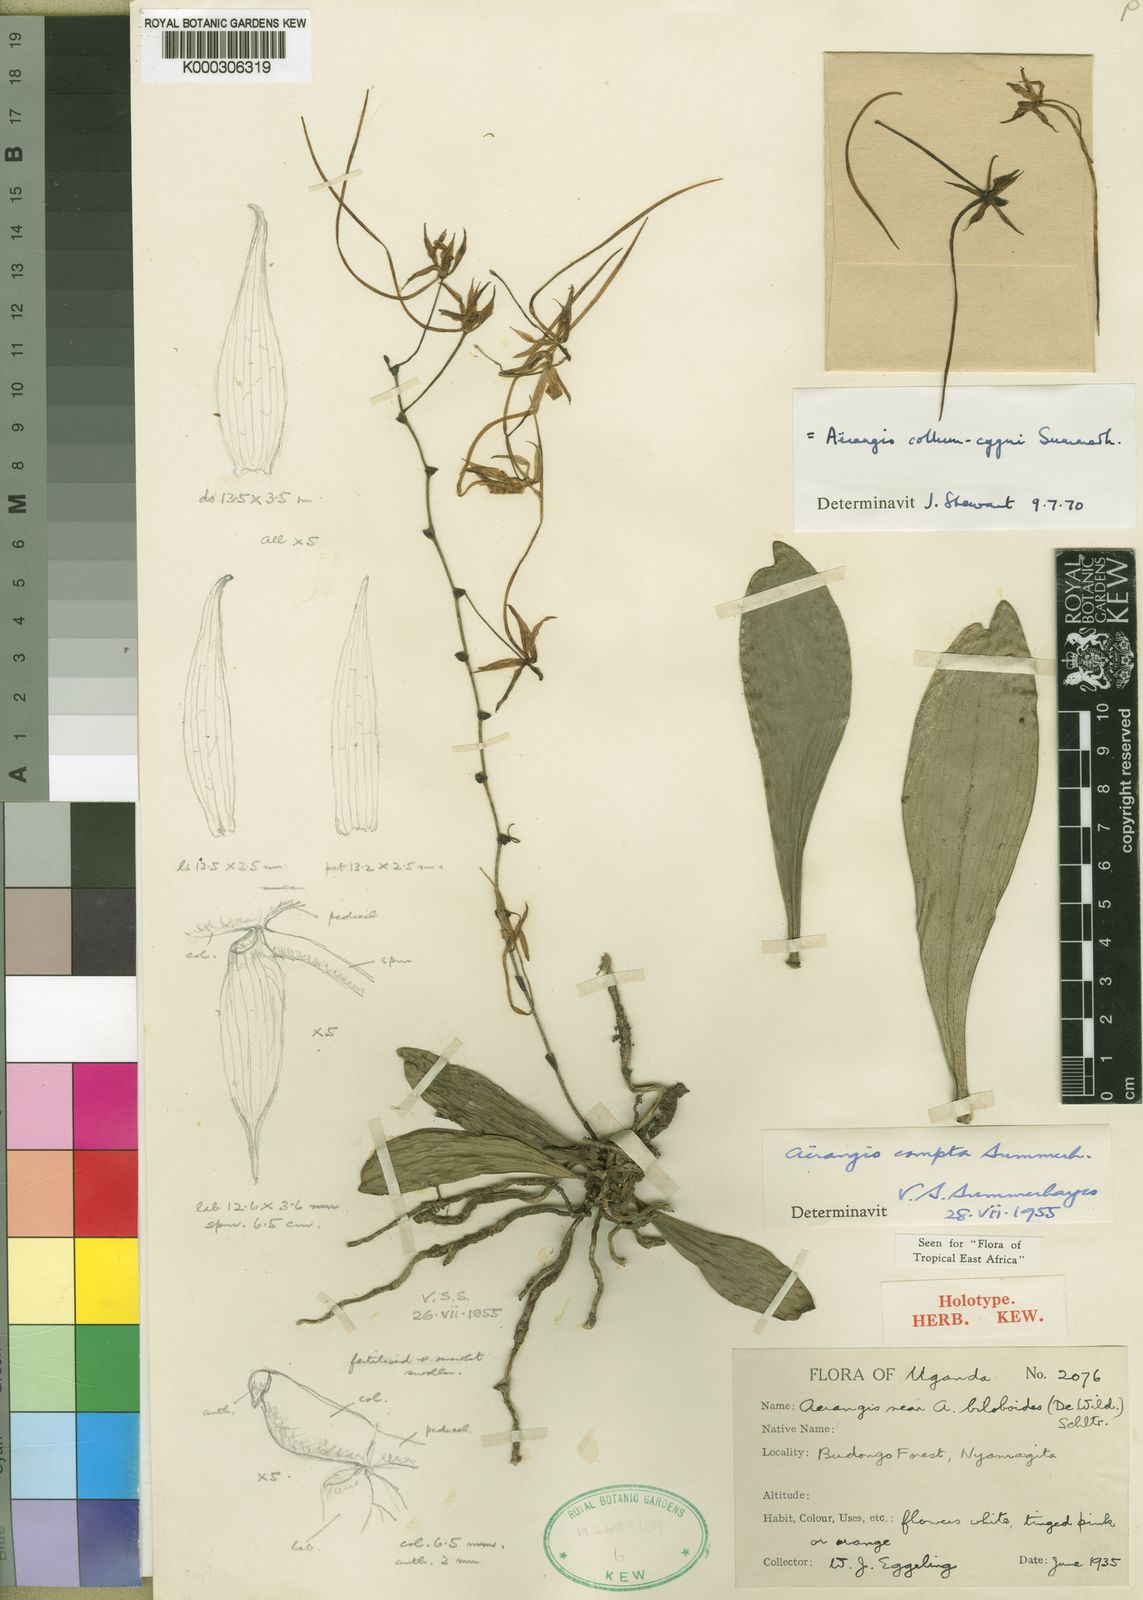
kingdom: Plantae
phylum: Tracheophyta
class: Liliopsida
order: Asparagales
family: Orchidaceae
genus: Aerangis
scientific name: Aerangis collum-cygni
